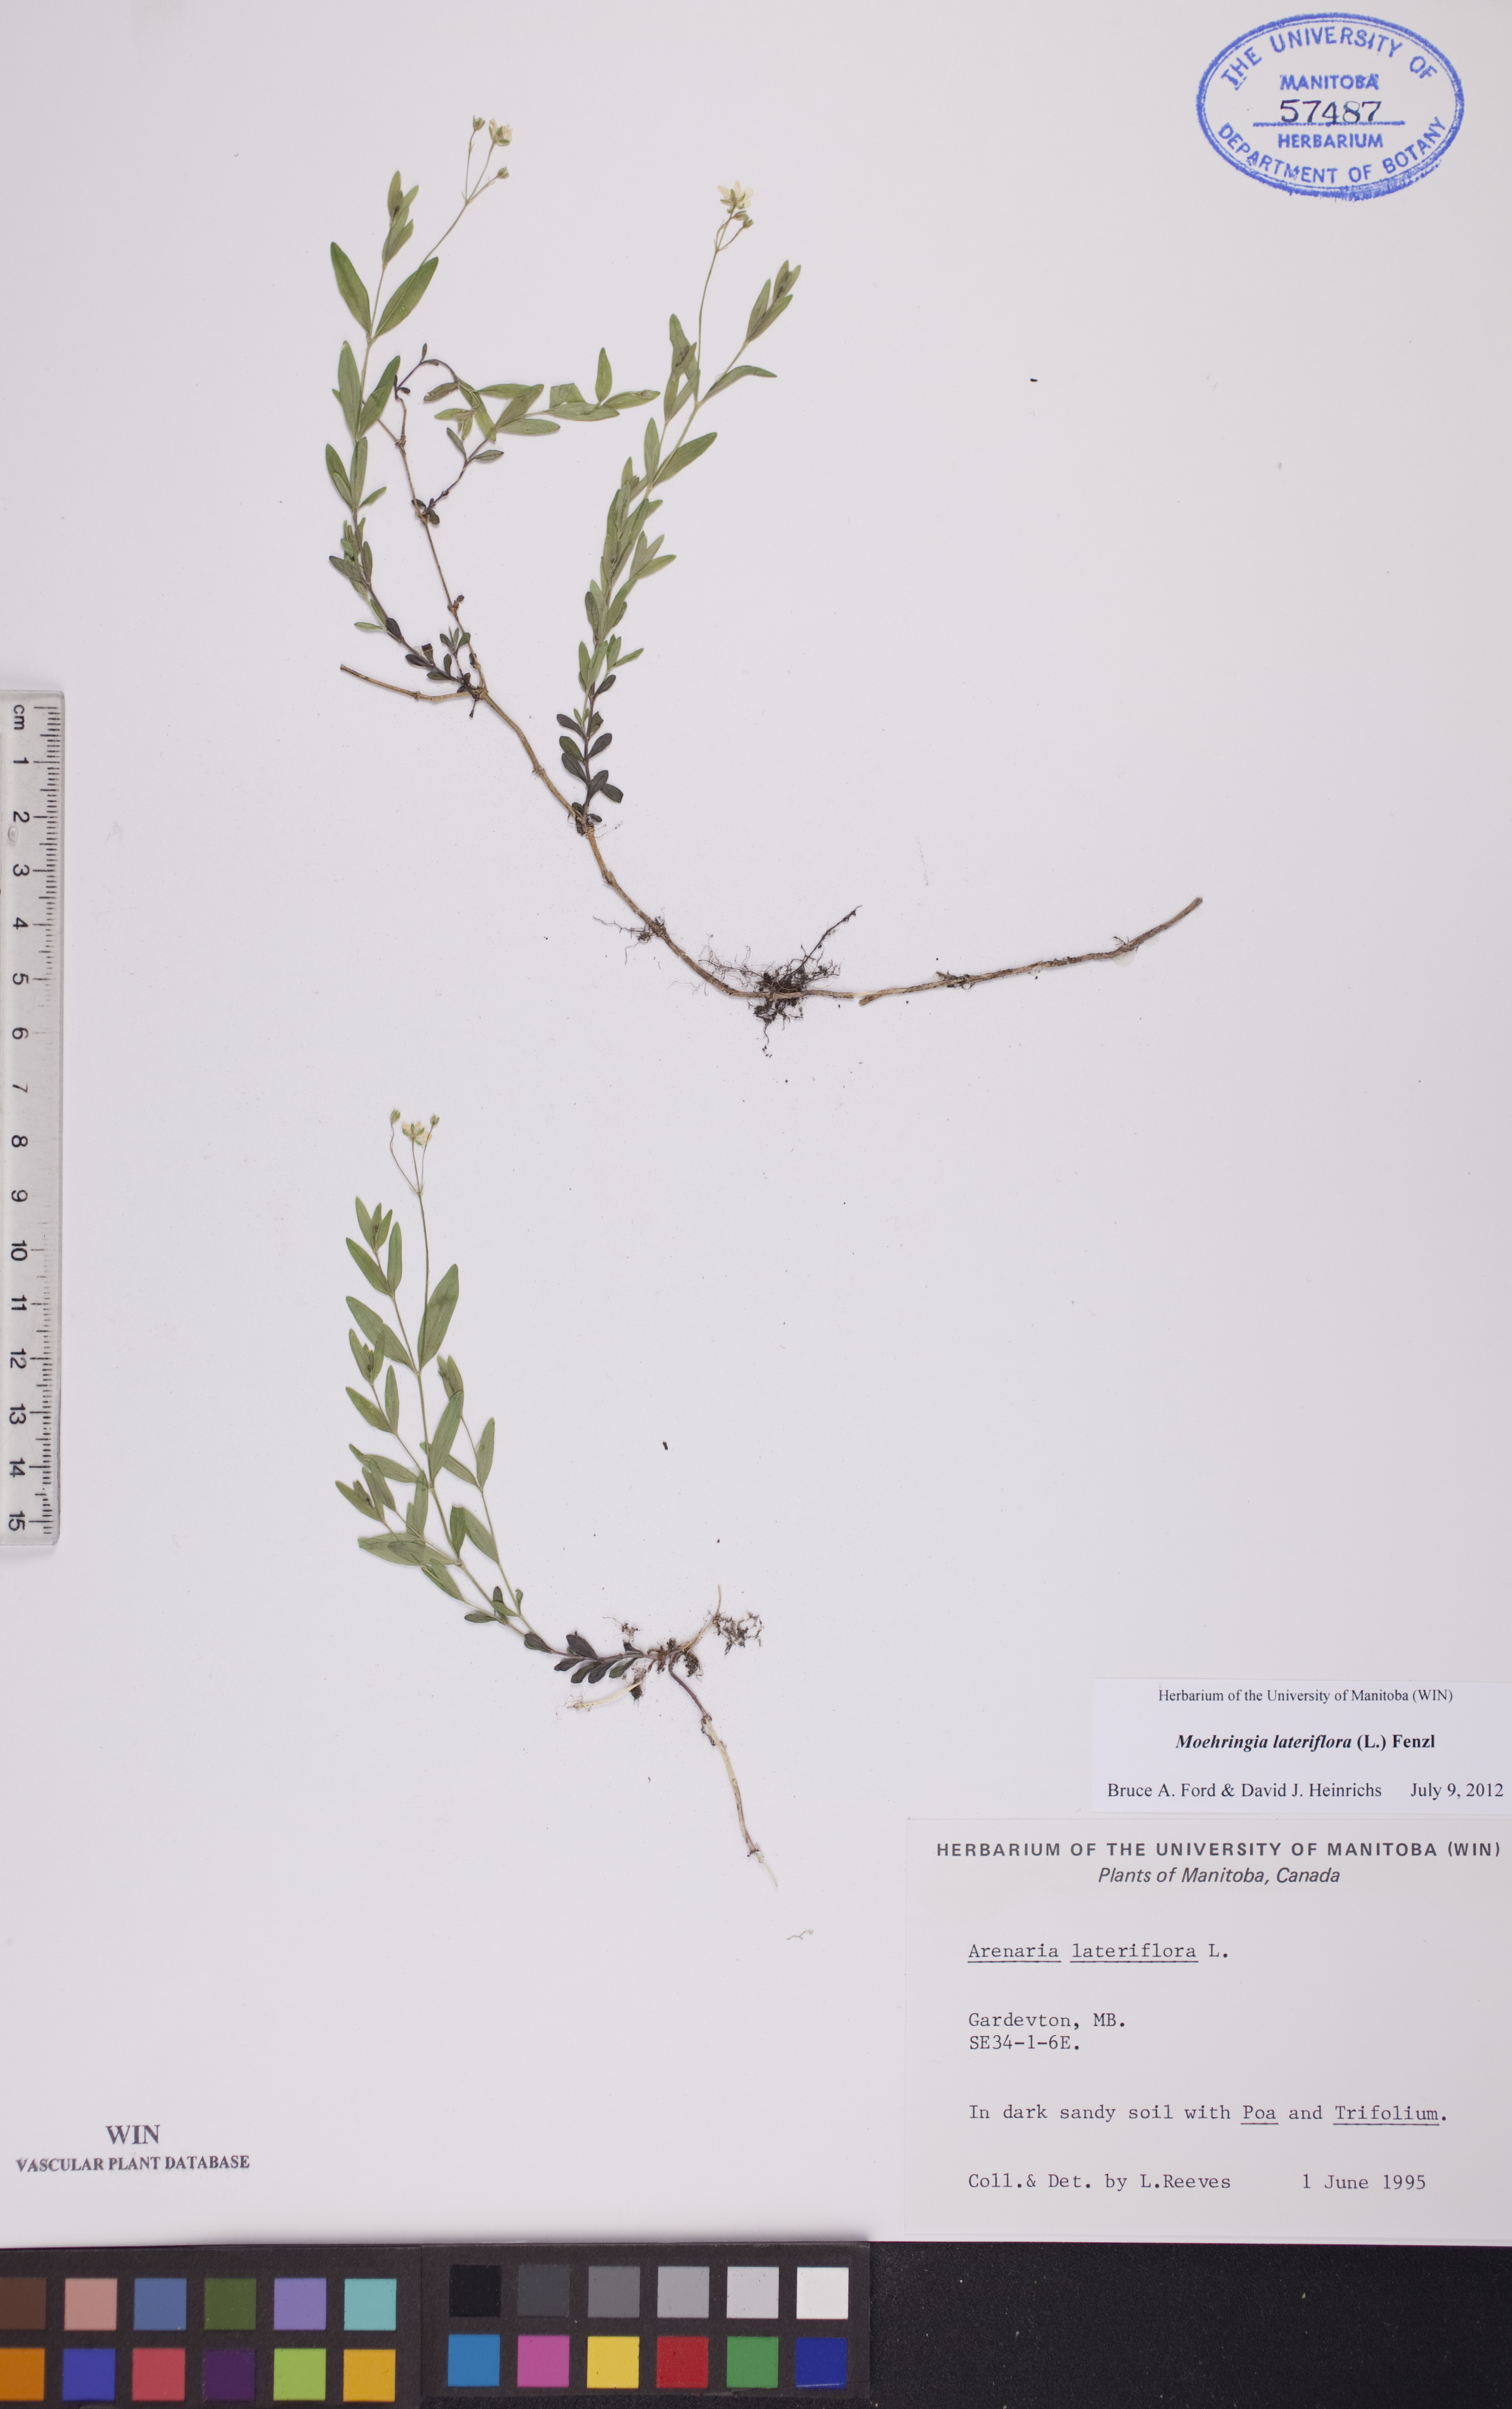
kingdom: Plantae
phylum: Tracheophyta
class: Magnoliopsida
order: Caryophyllales
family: Caryophyllaceae
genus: Moehringia
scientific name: Moehringia lateriflora
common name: Blunt-leaved sandwort
